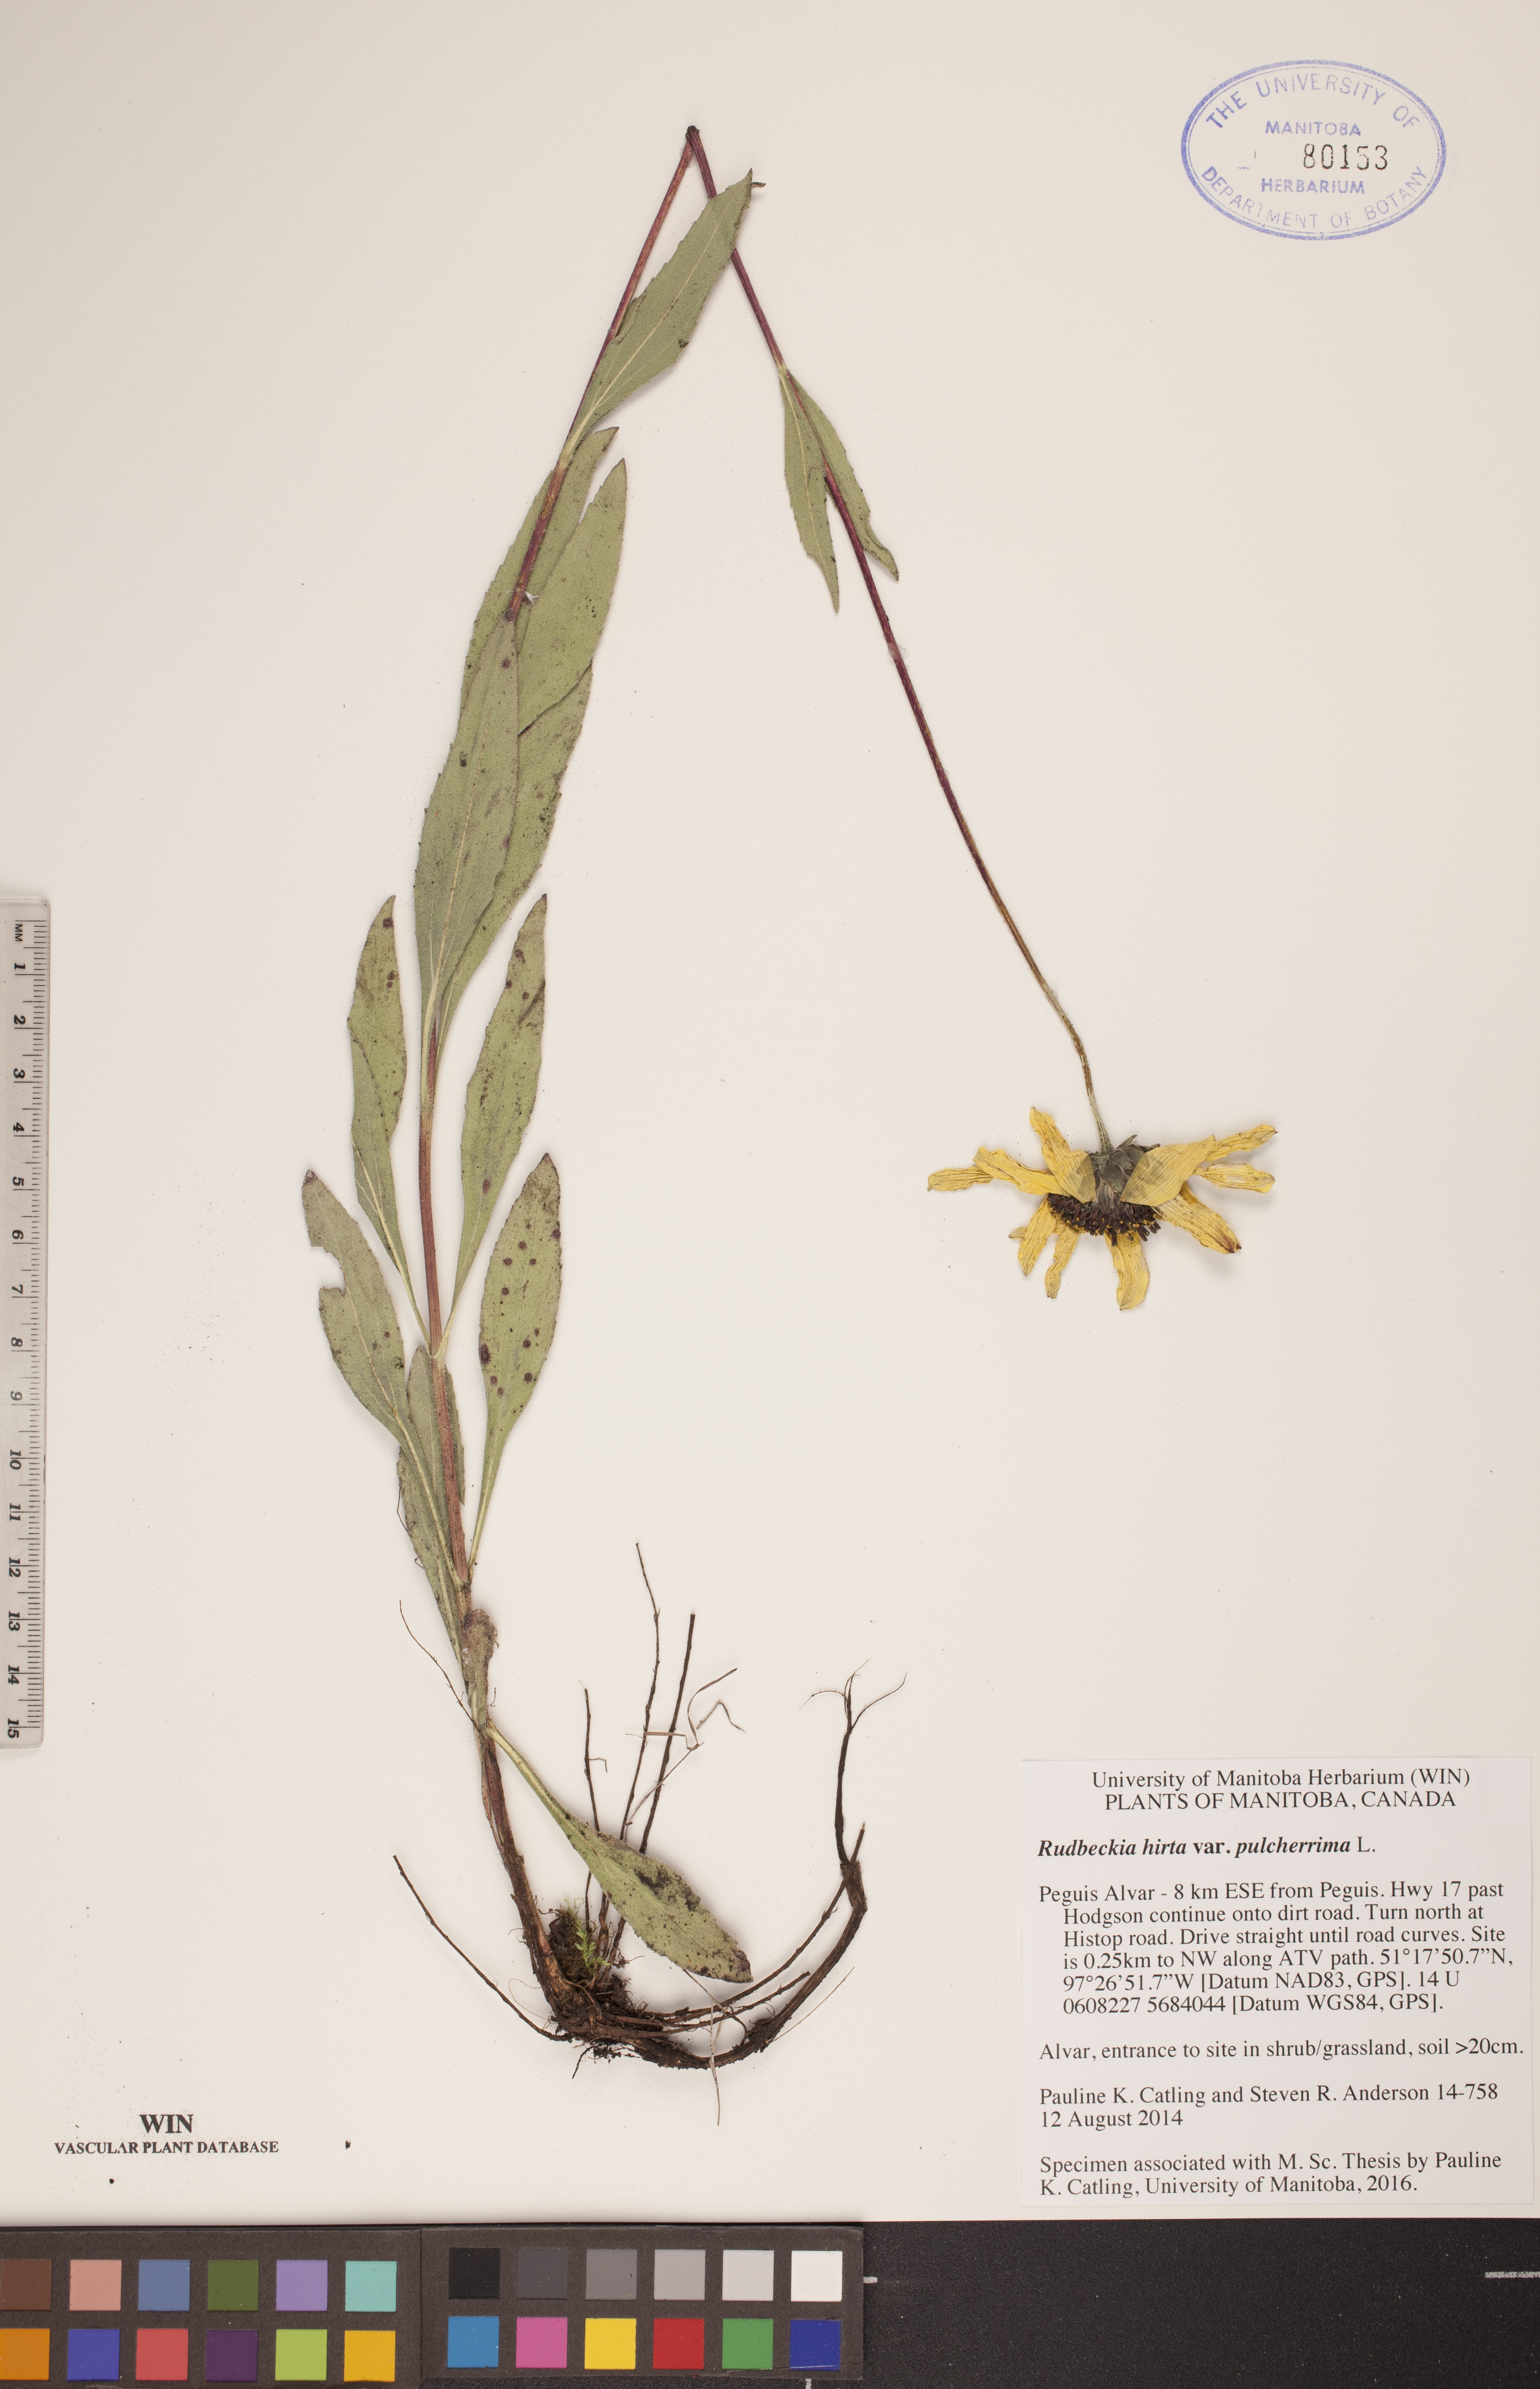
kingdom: Plantae
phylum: Tracheophyta
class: Magnoliopsida
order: Asterales
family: Asteraceae
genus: Rudbeckia
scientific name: Rudbeckia hirta
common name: Black-eyed-susan
